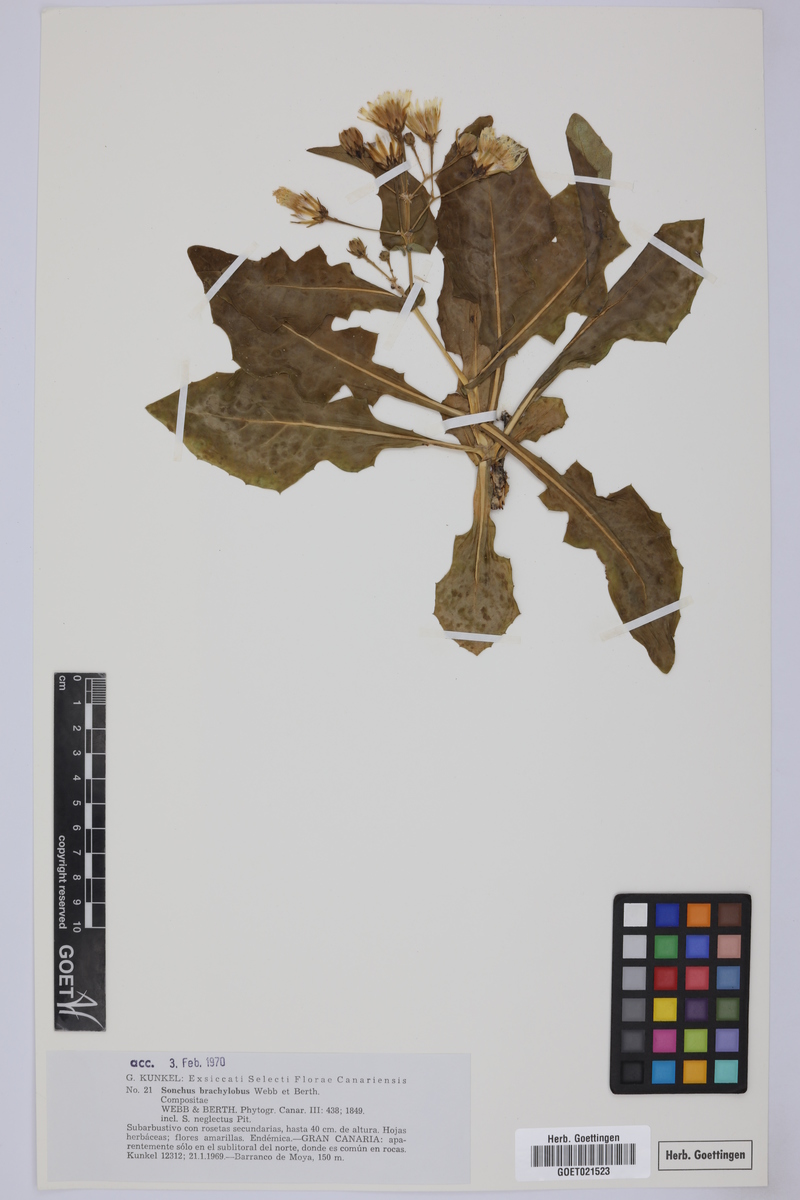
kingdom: Plantae
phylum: Tracheophyta
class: Magnoliopsida
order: Asterales
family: Asteraceae
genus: Sonchus
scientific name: Sonchus brachylobus
